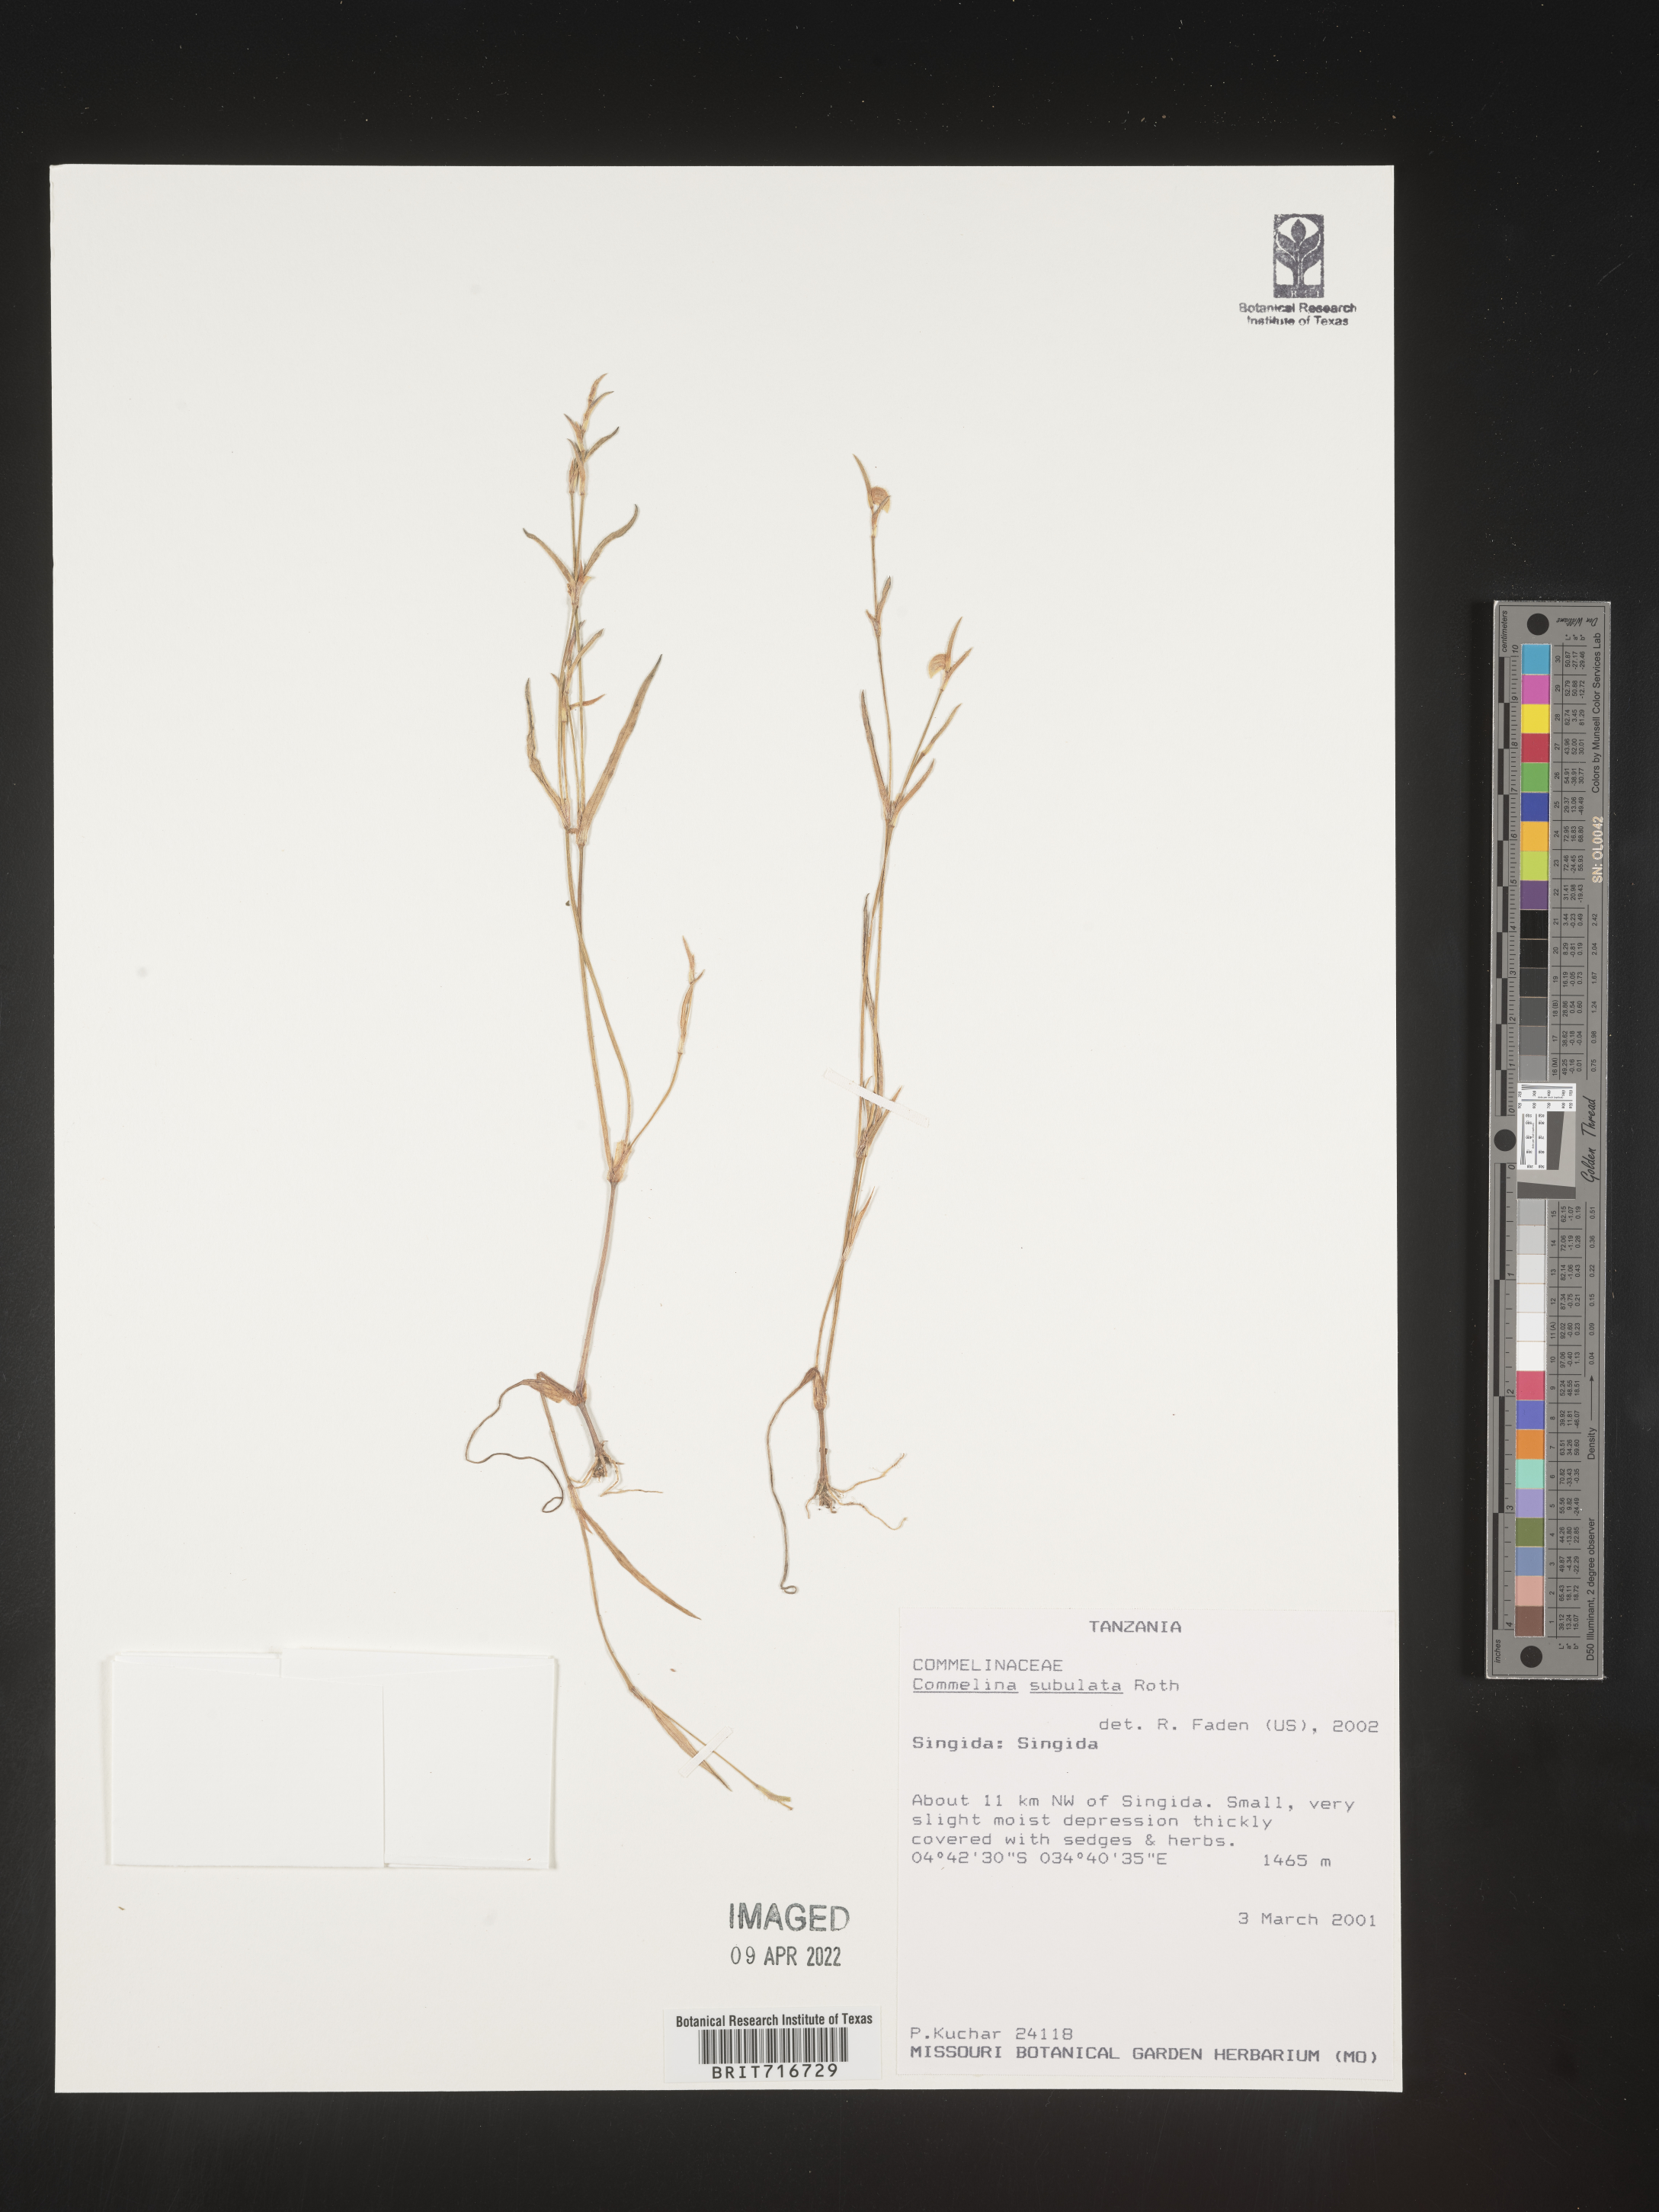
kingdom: Plantae
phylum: Tracheophyta
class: Liliopsida
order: Commelinales
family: Commelinaceae
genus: Commelina
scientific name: Commelina
